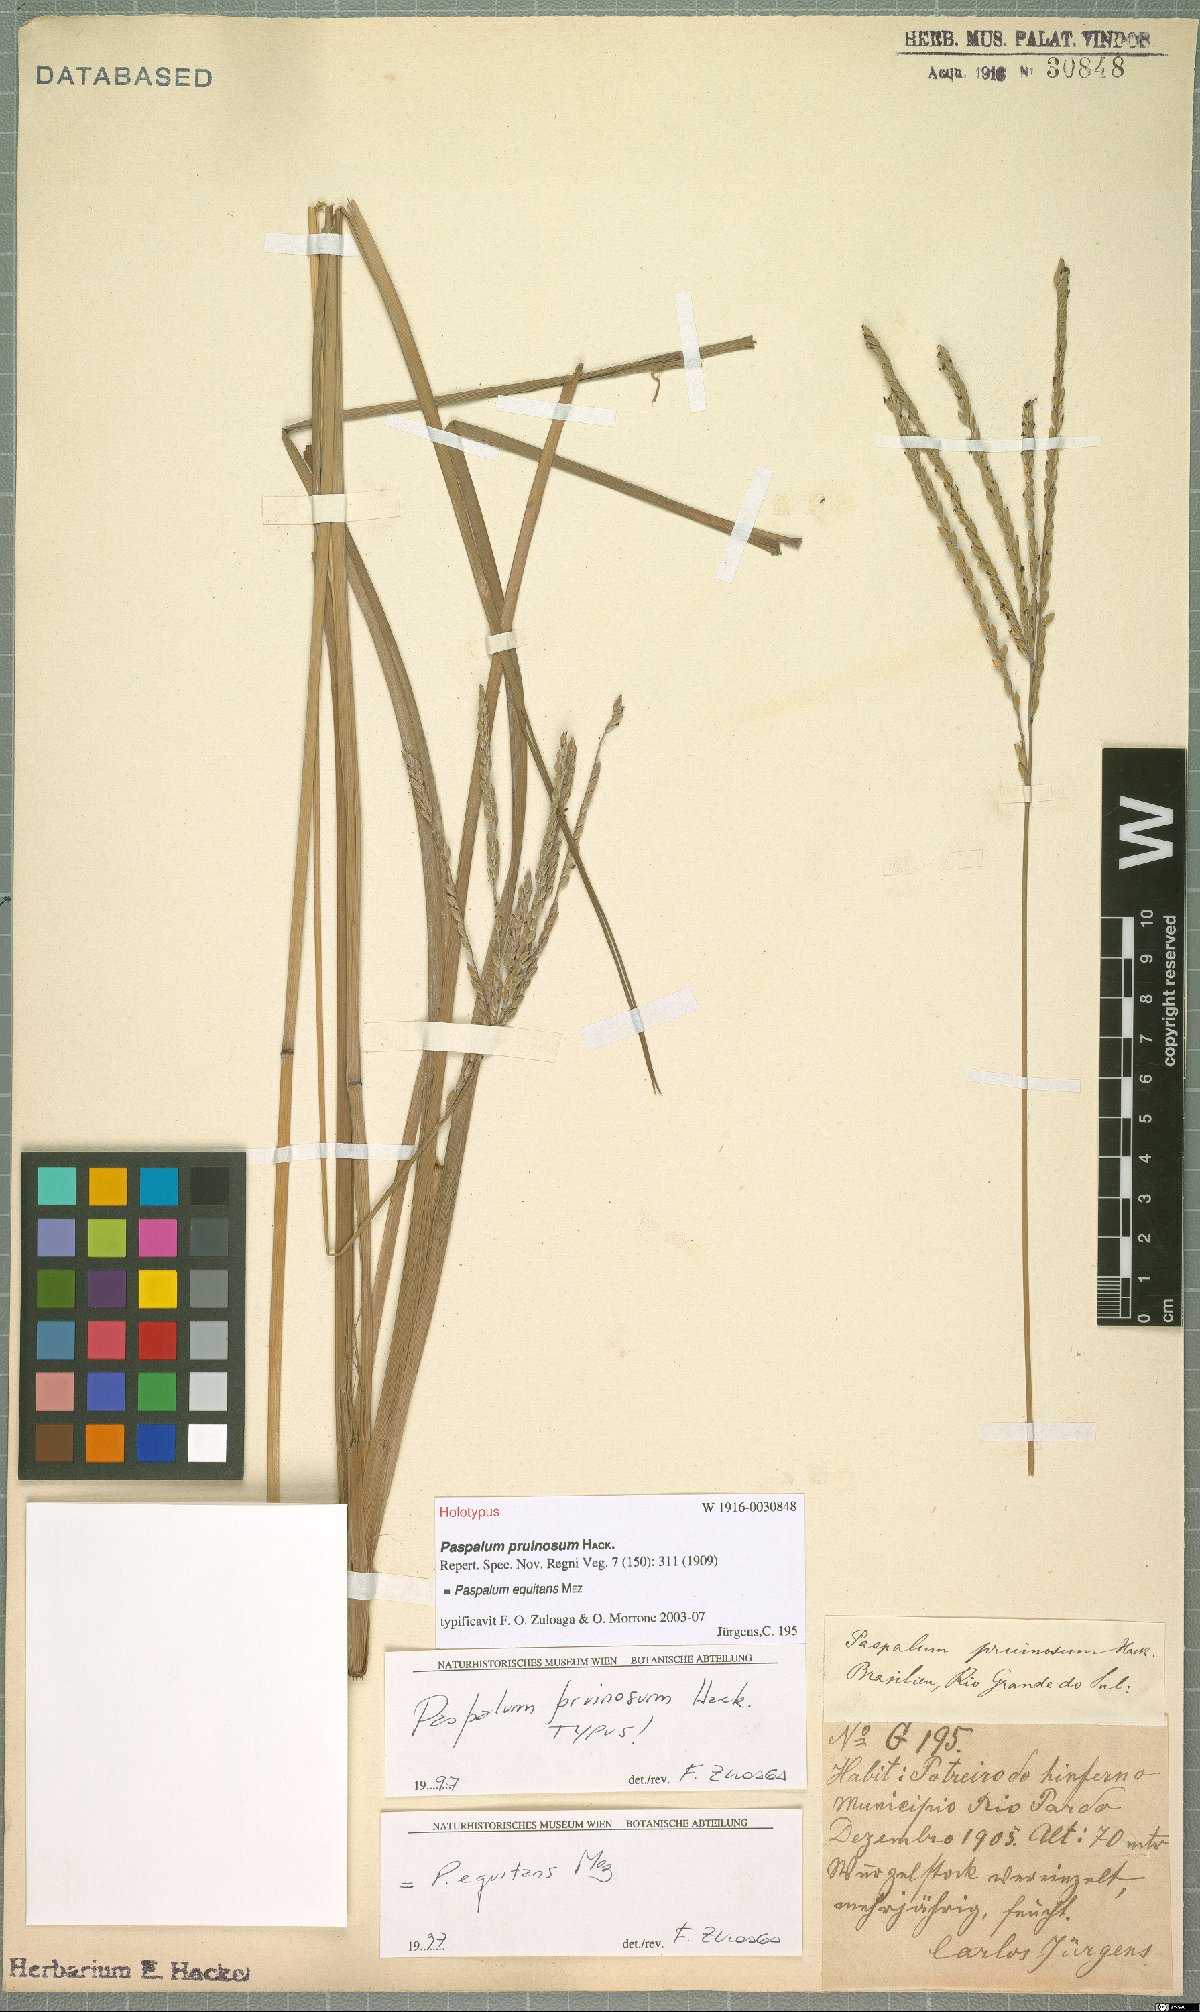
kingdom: Plantae
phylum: Tracheophyta
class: Liliopsida
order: Poales
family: Poaceae
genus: Paspalum
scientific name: Paspalum equitans
